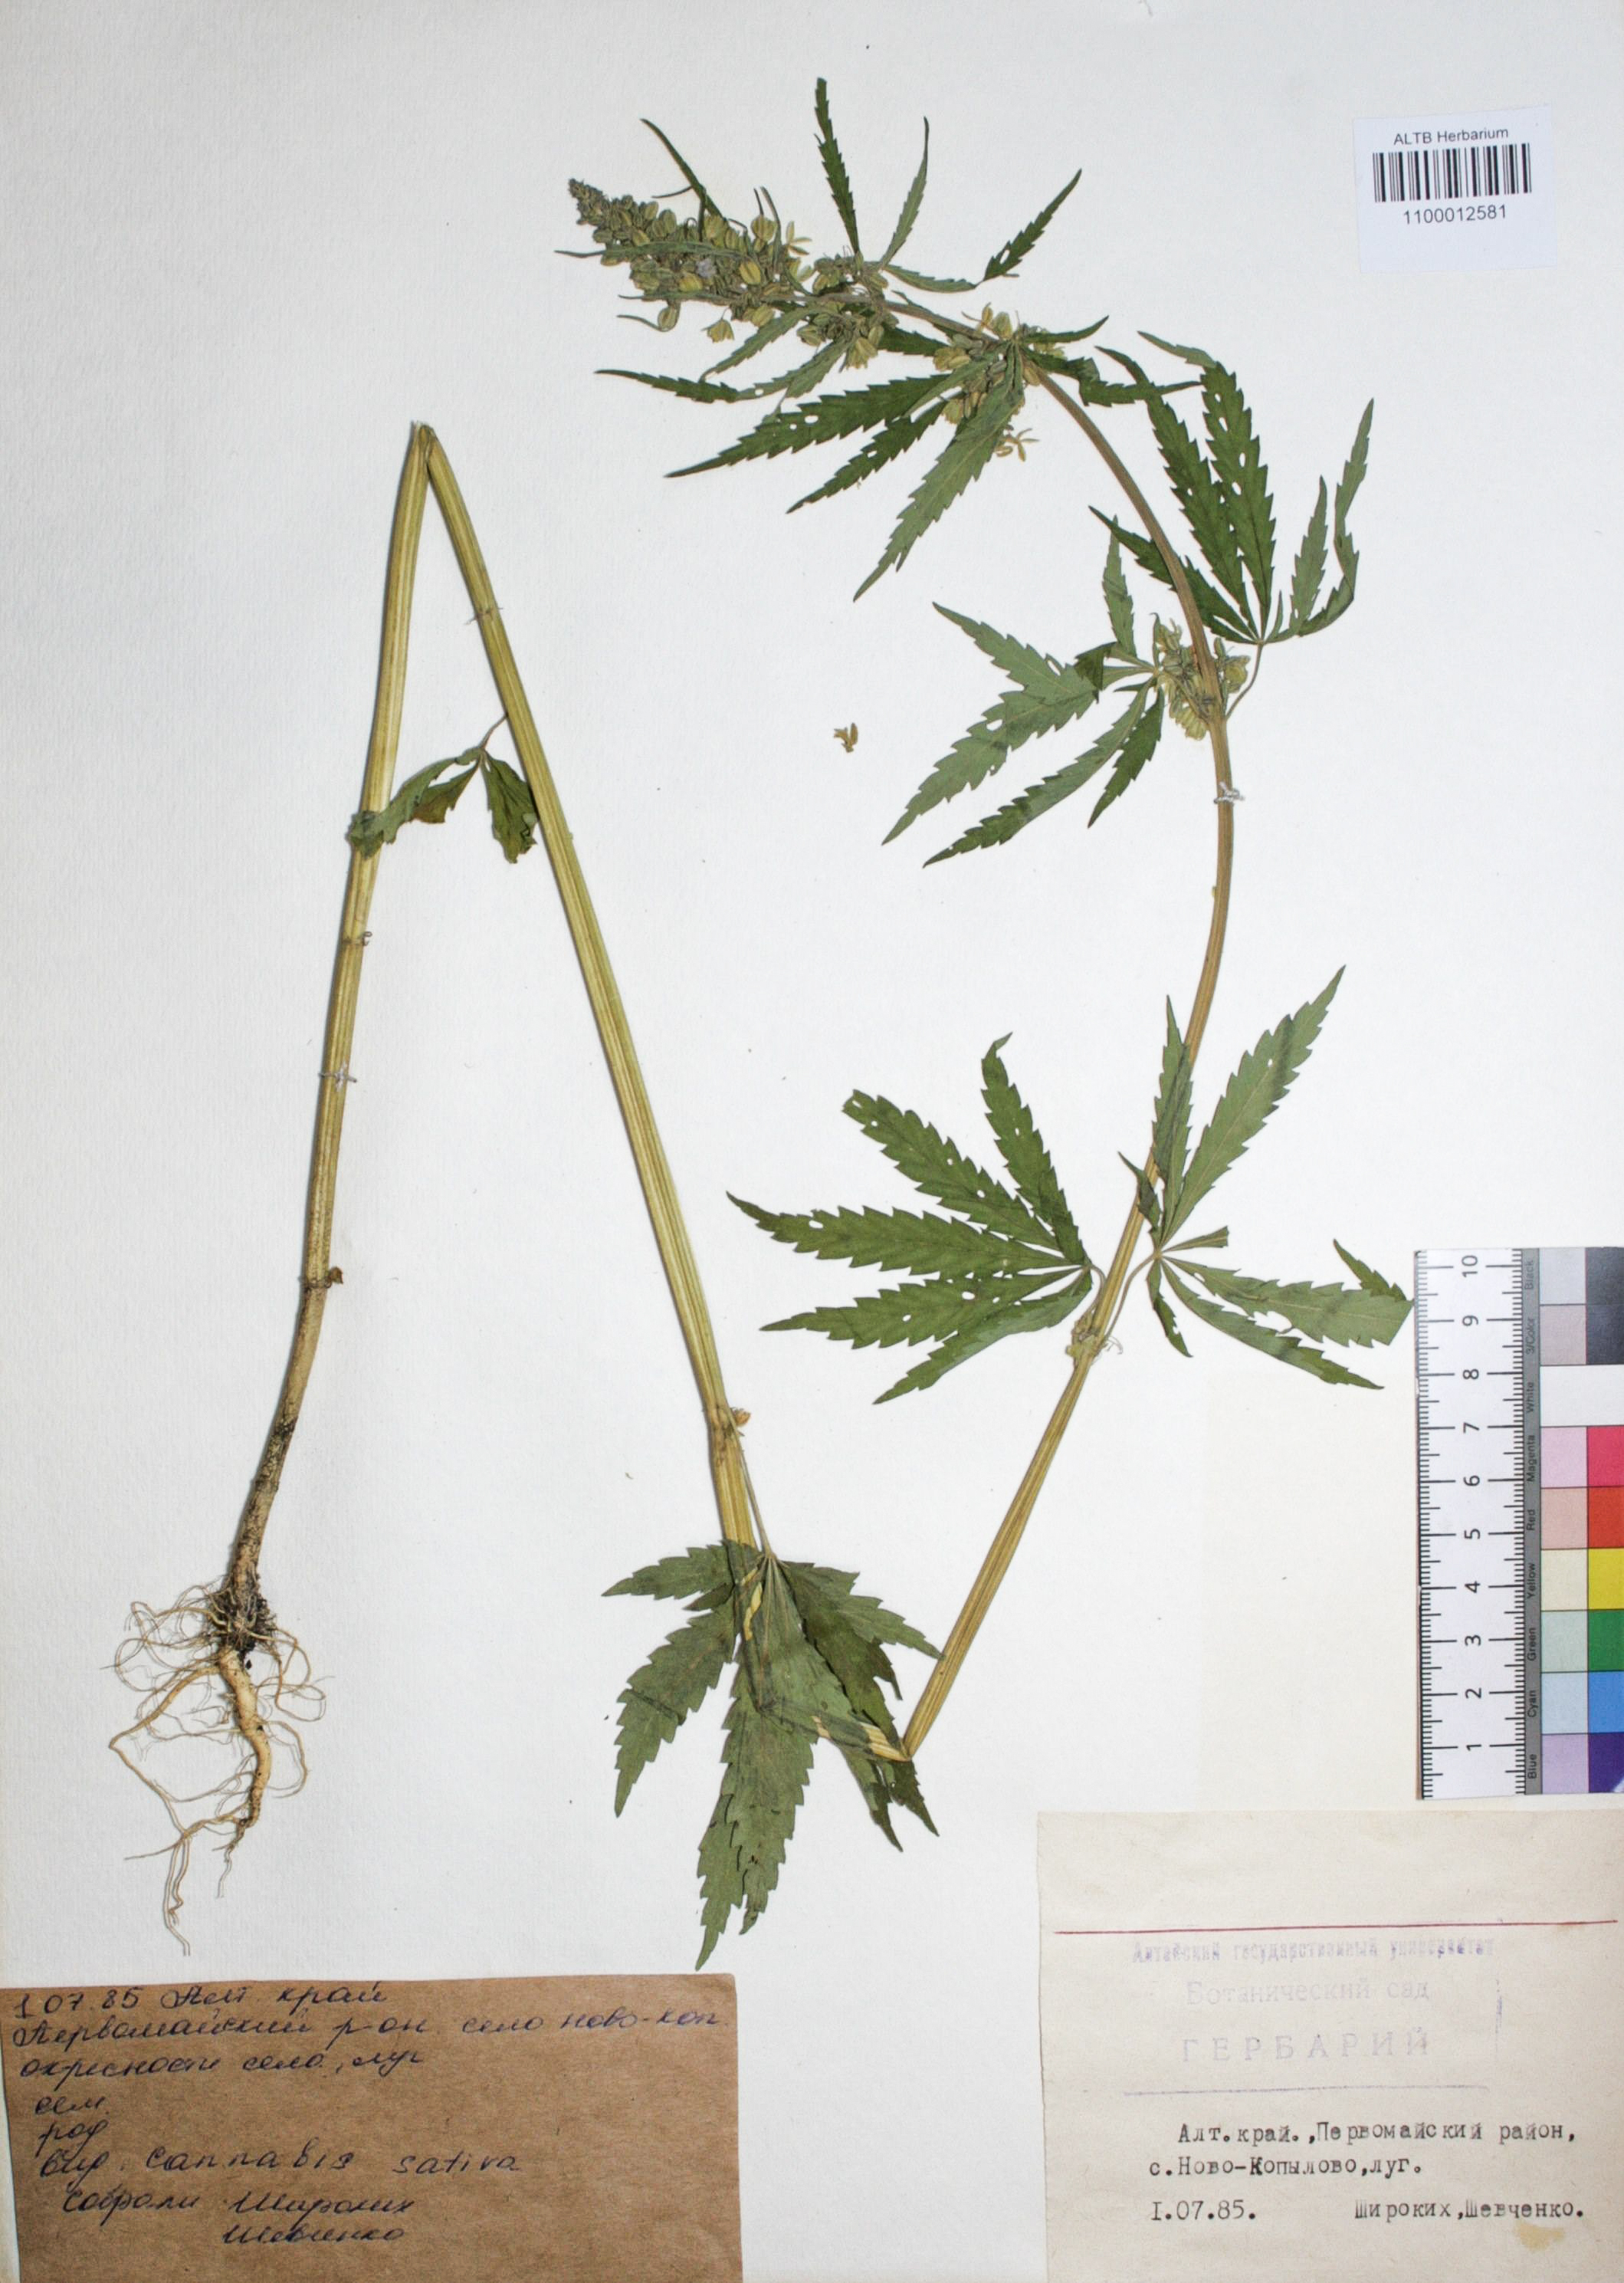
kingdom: Plantae
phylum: Tracheophyta
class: Magnoliopsida
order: Rosales
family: Cannabaceae
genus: Cannabis
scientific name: Cannabis sativa
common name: Hemp
